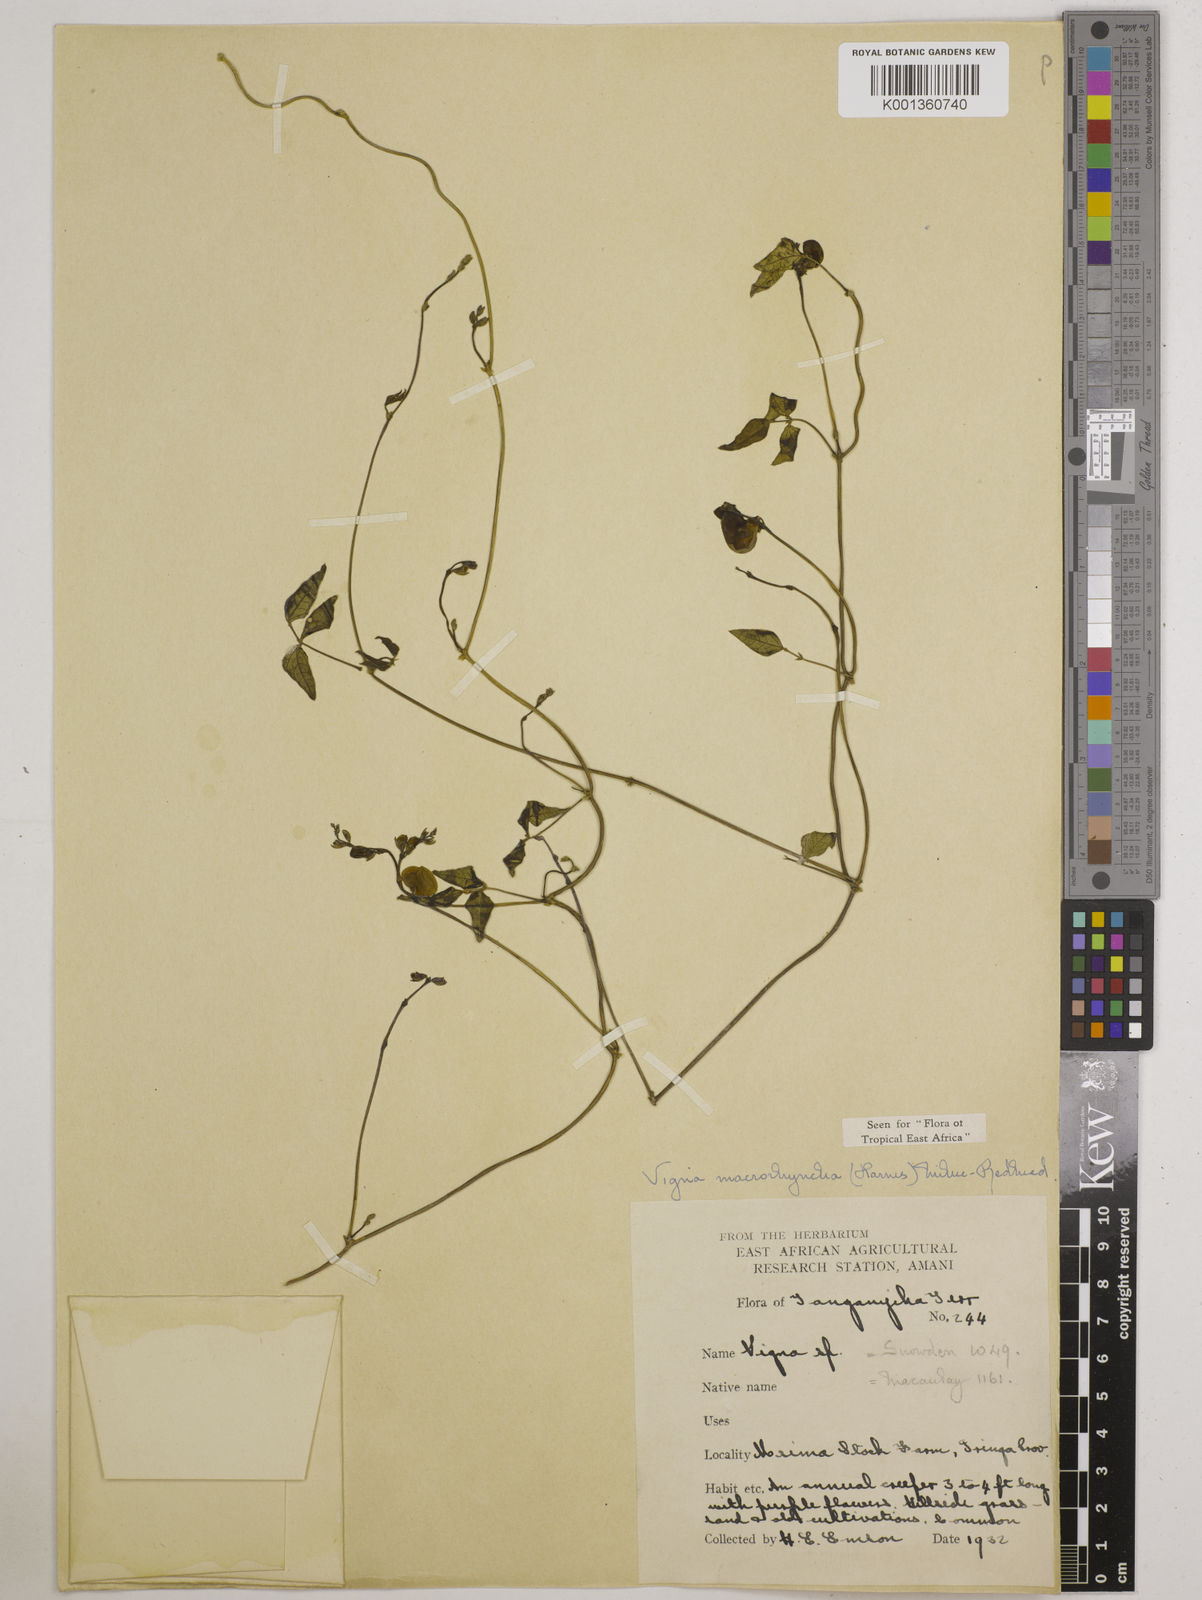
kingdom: Plantae
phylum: Tracheophyta
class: Magnoliopsida
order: Fabales
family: Fabaceae
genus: Wajira
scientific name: Wajira grahamiana
